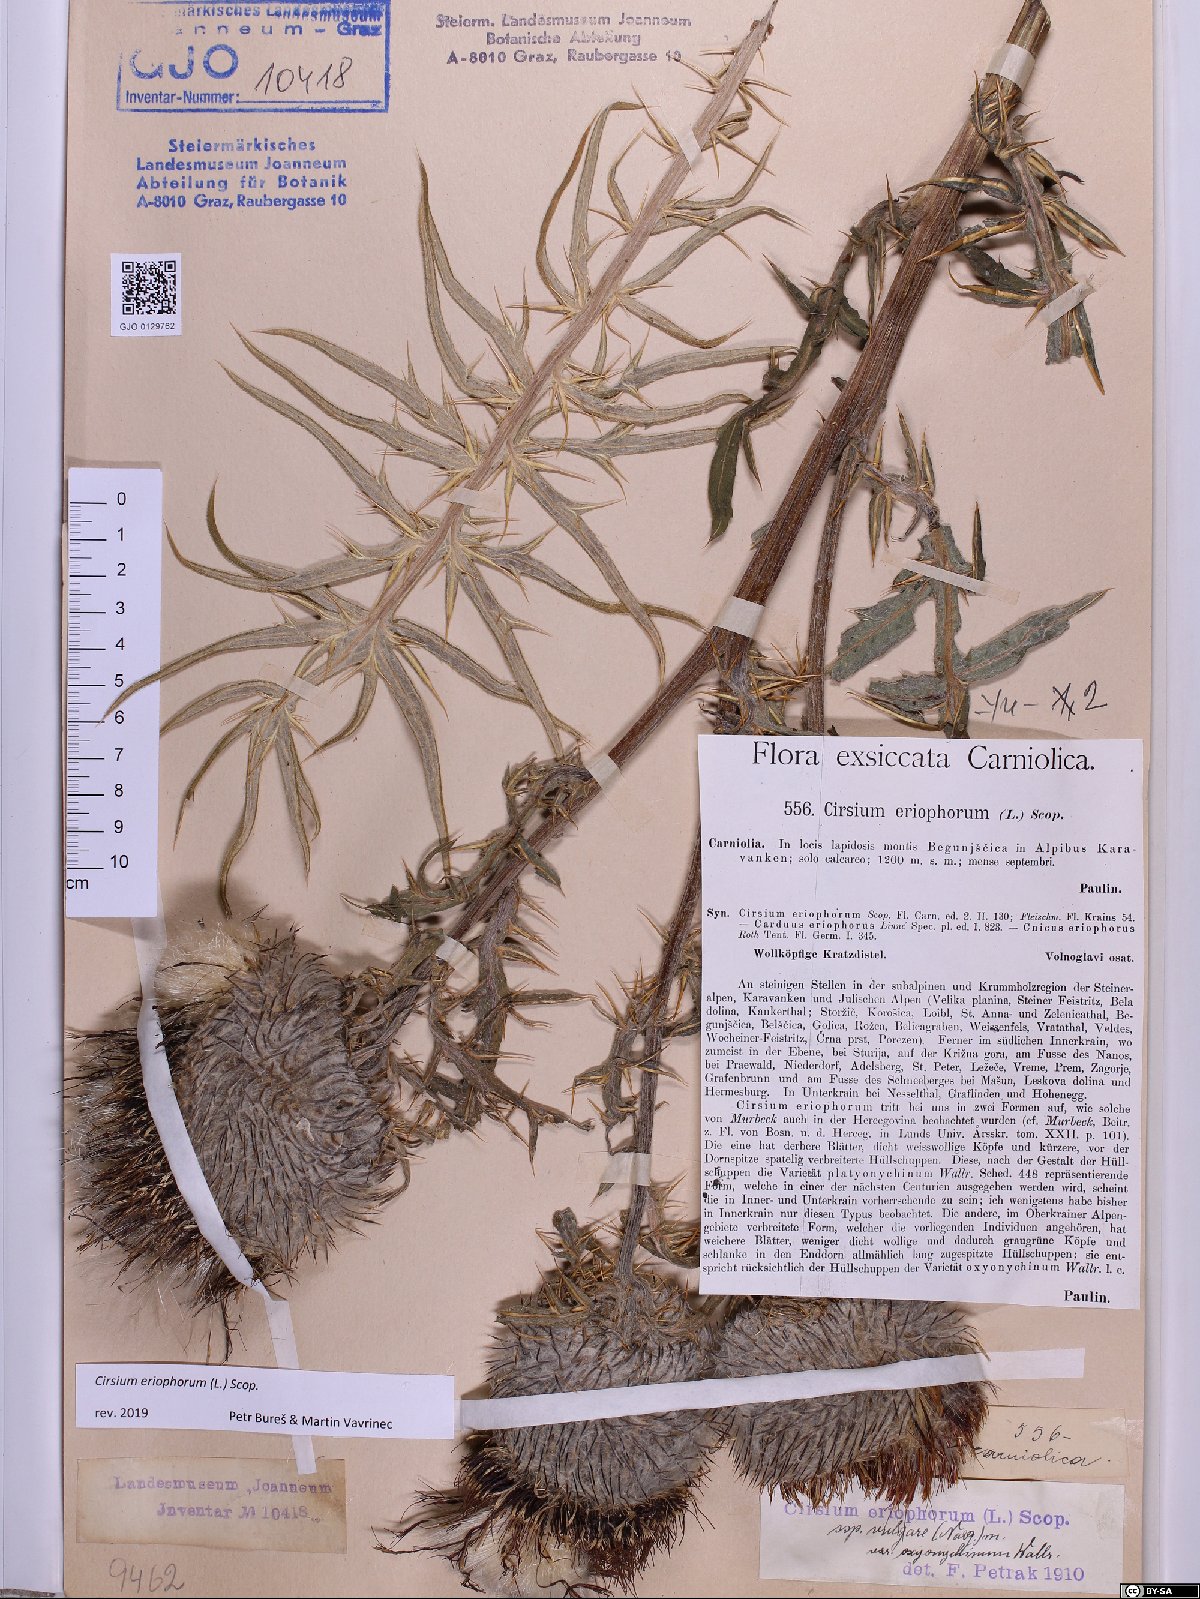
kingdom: Plantae
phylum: Tracheophyta
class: Magnoliopsida
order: Asterales
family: Asteraceae
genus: Lophiolepis
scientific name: Lophiolepis eriophora
